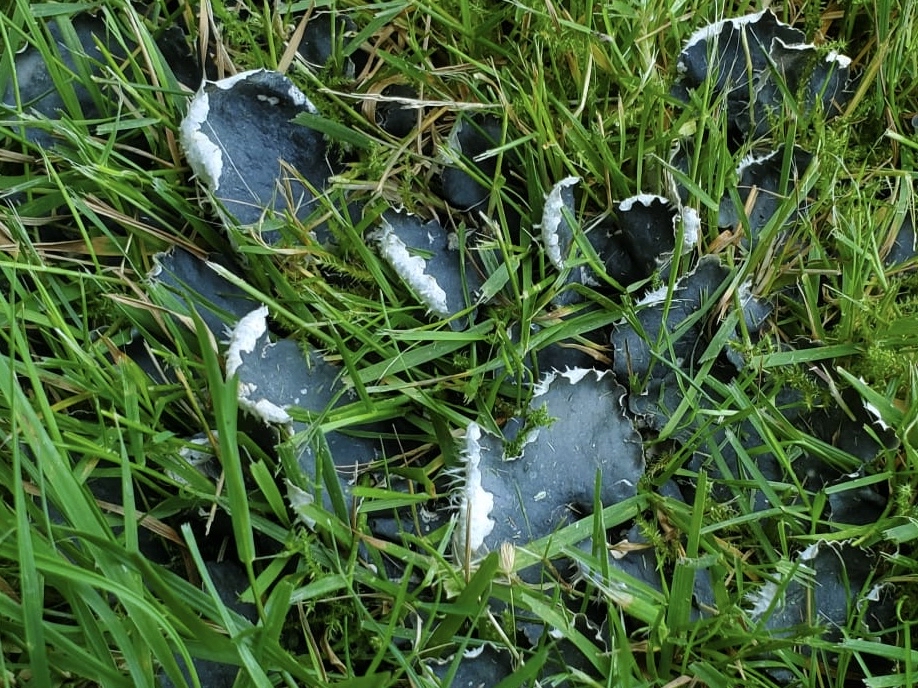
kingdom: Fungi
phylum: Ascomycota
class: Lecanoromycetes
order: Peltigerales
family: Peltigeraceae
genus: Peltigera
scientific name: Peltigera hymenina
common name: hinde-skjoldlav
